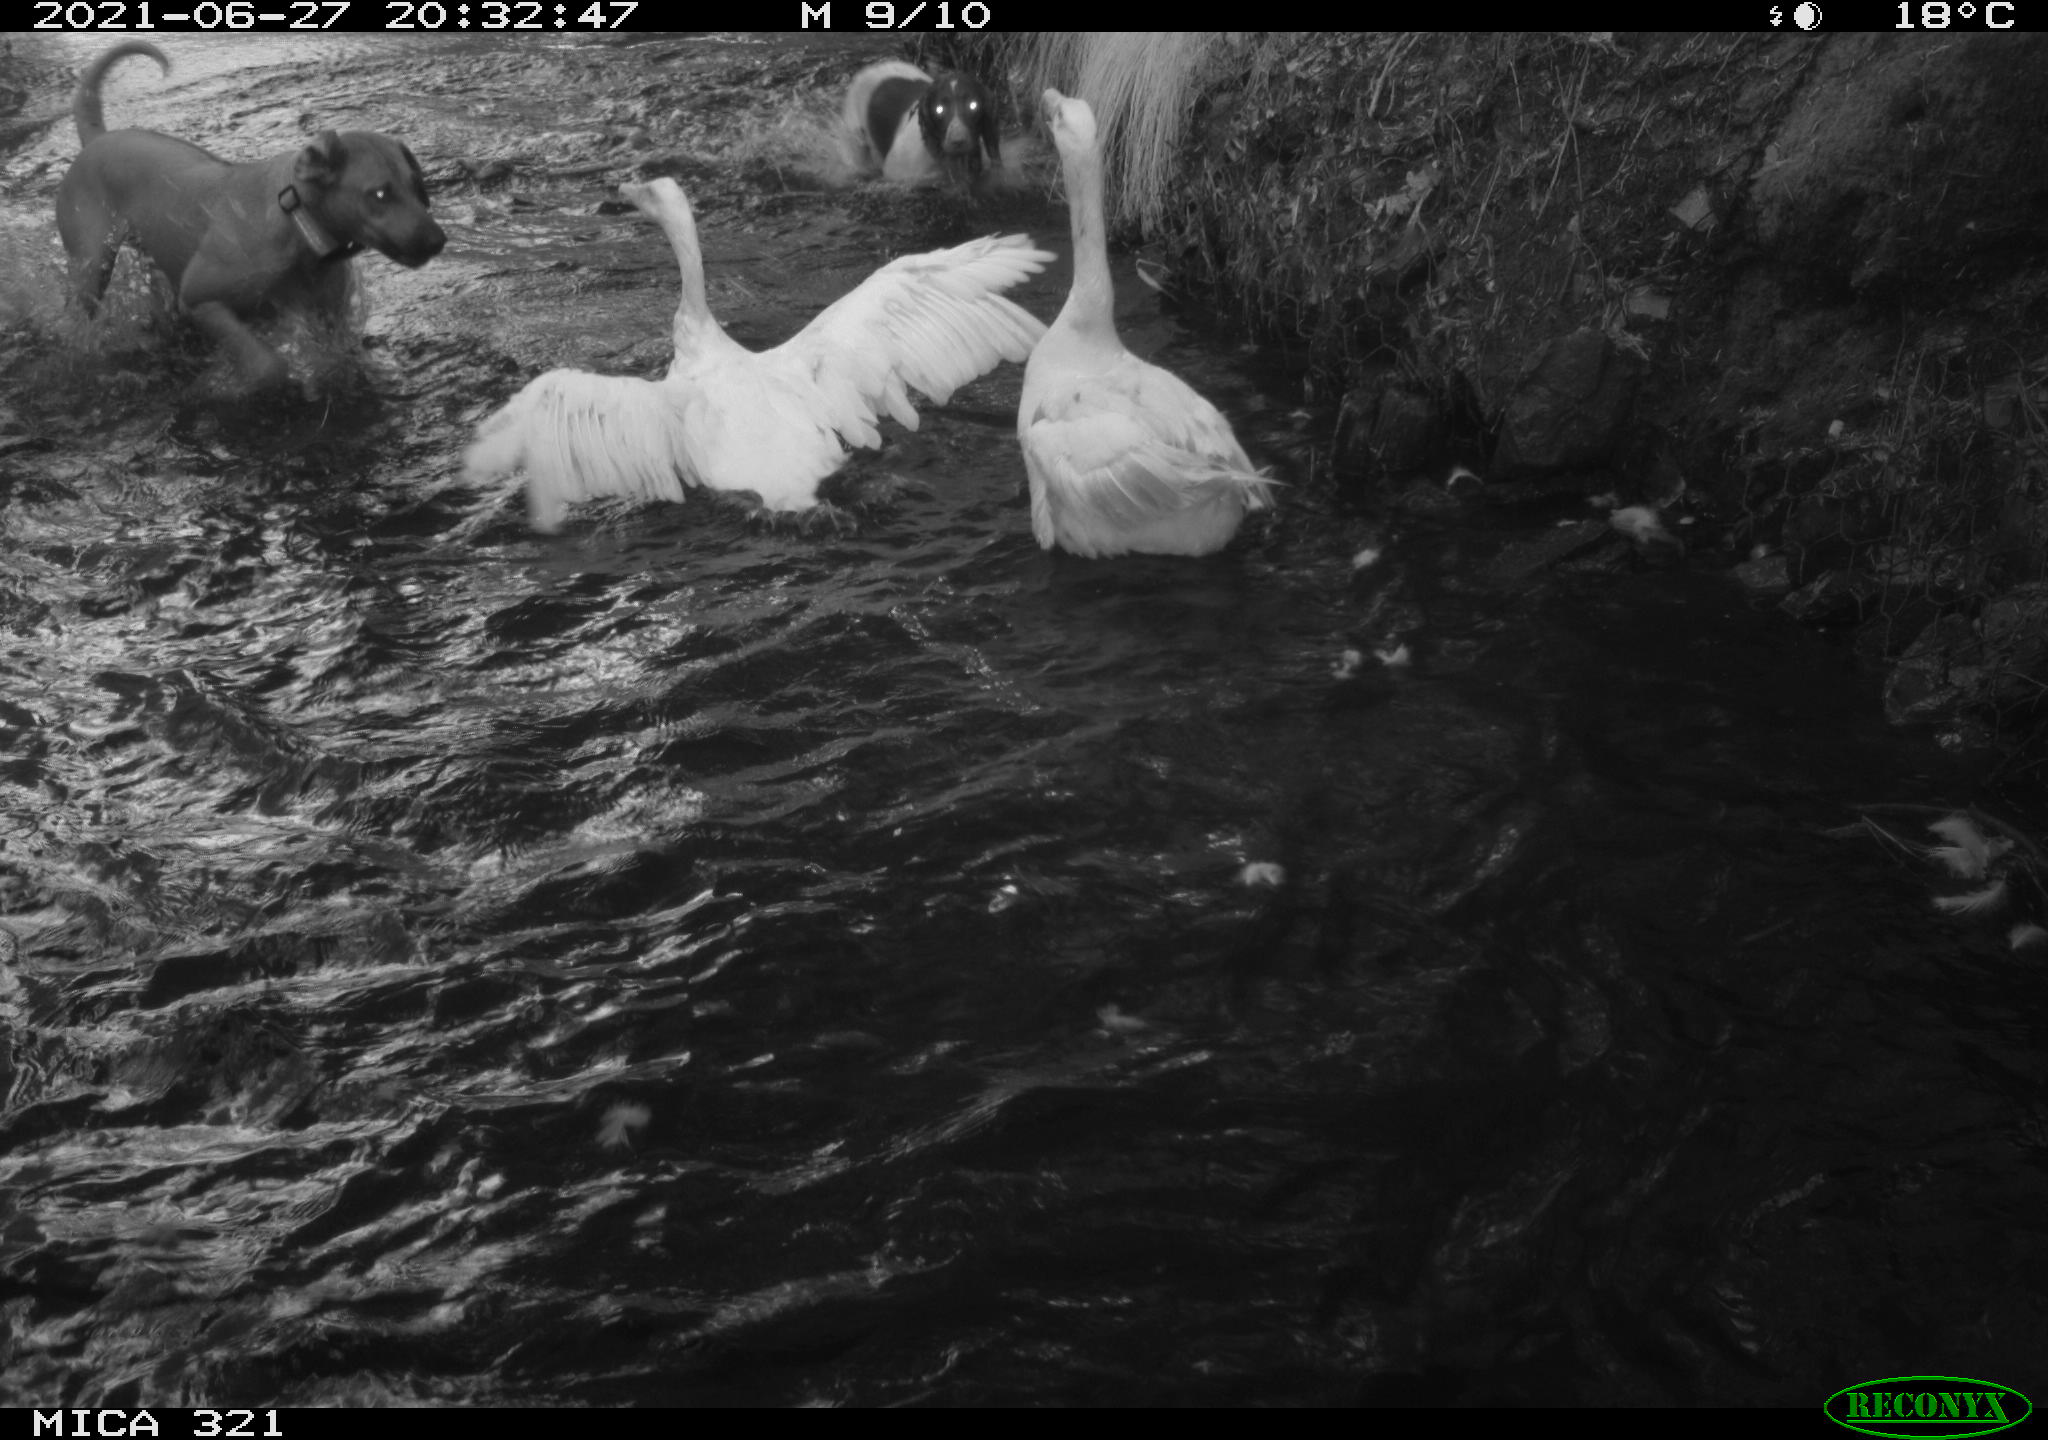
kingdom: Animalia
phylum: Chordata
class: Mammalia
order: Carnivora
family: Canidae
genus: Canis
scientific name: Canis lupus
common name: Gray wolf
